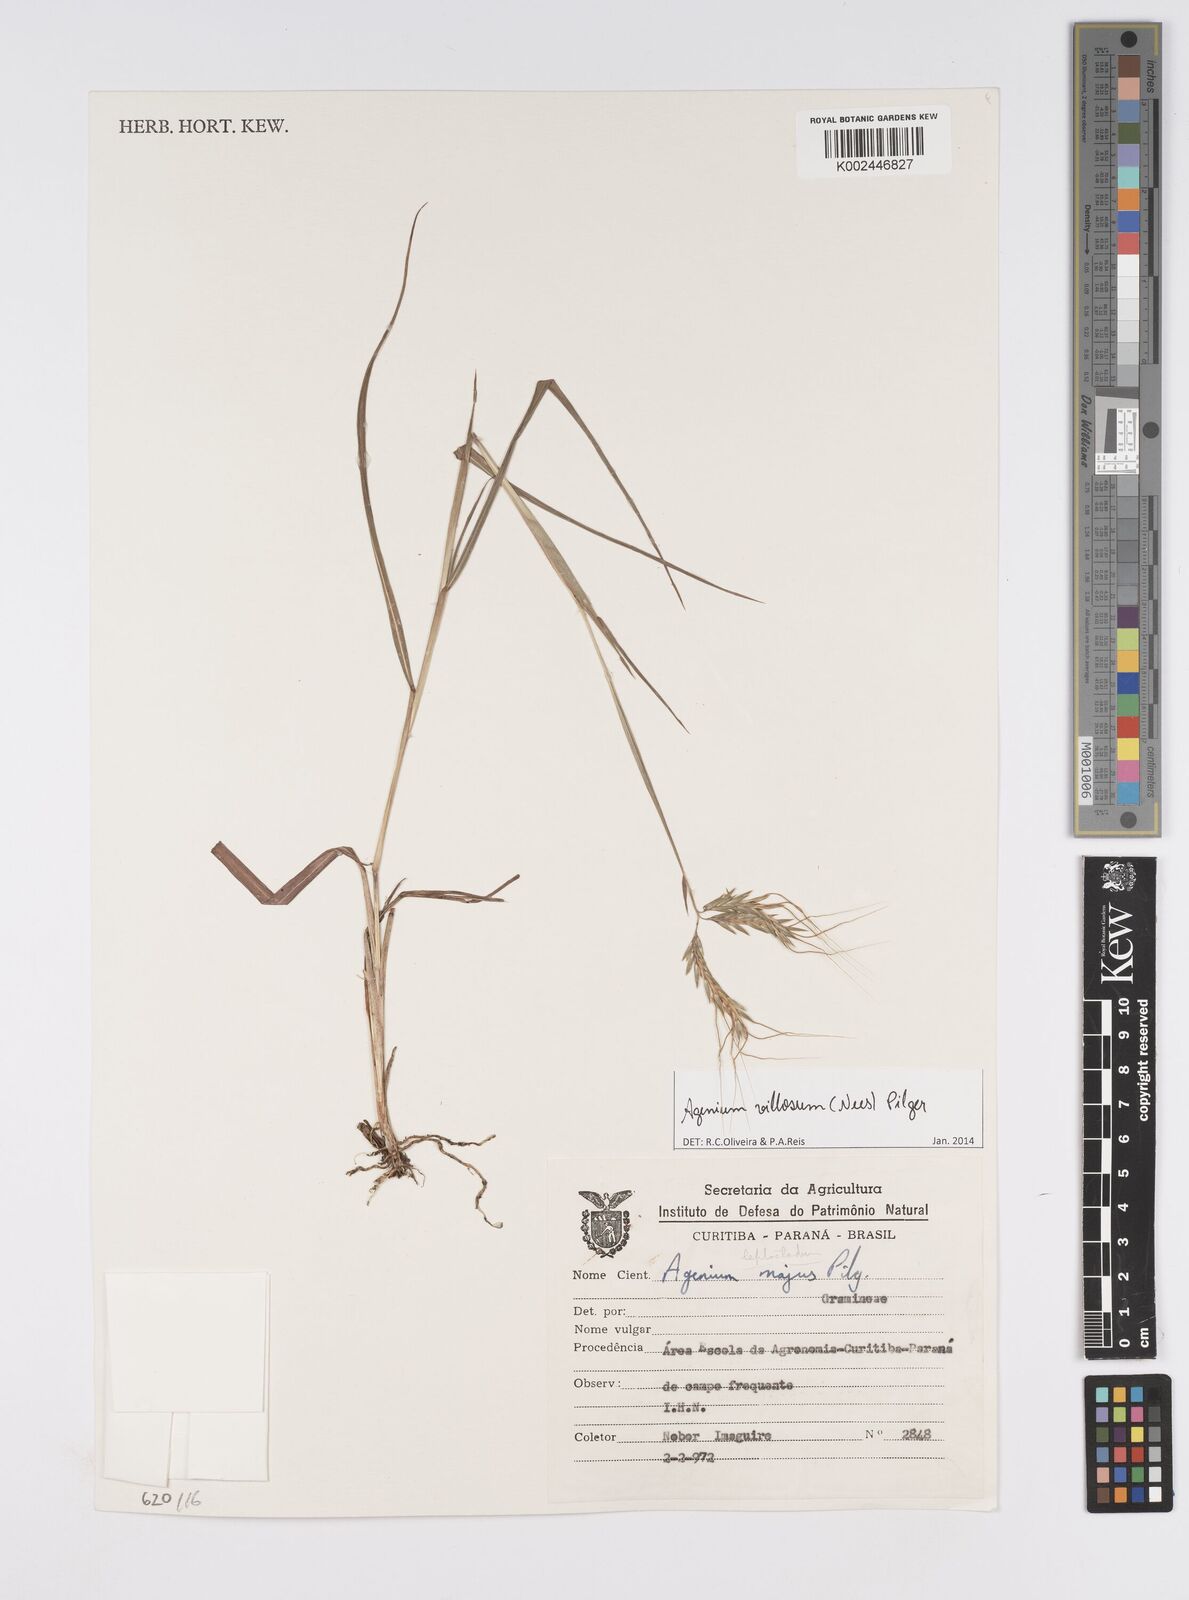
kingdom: Plantae
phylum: Tracheophyta
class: Liliopsida
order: Poales
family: Poaceae
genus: Agenium
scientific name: Agenium villosum
